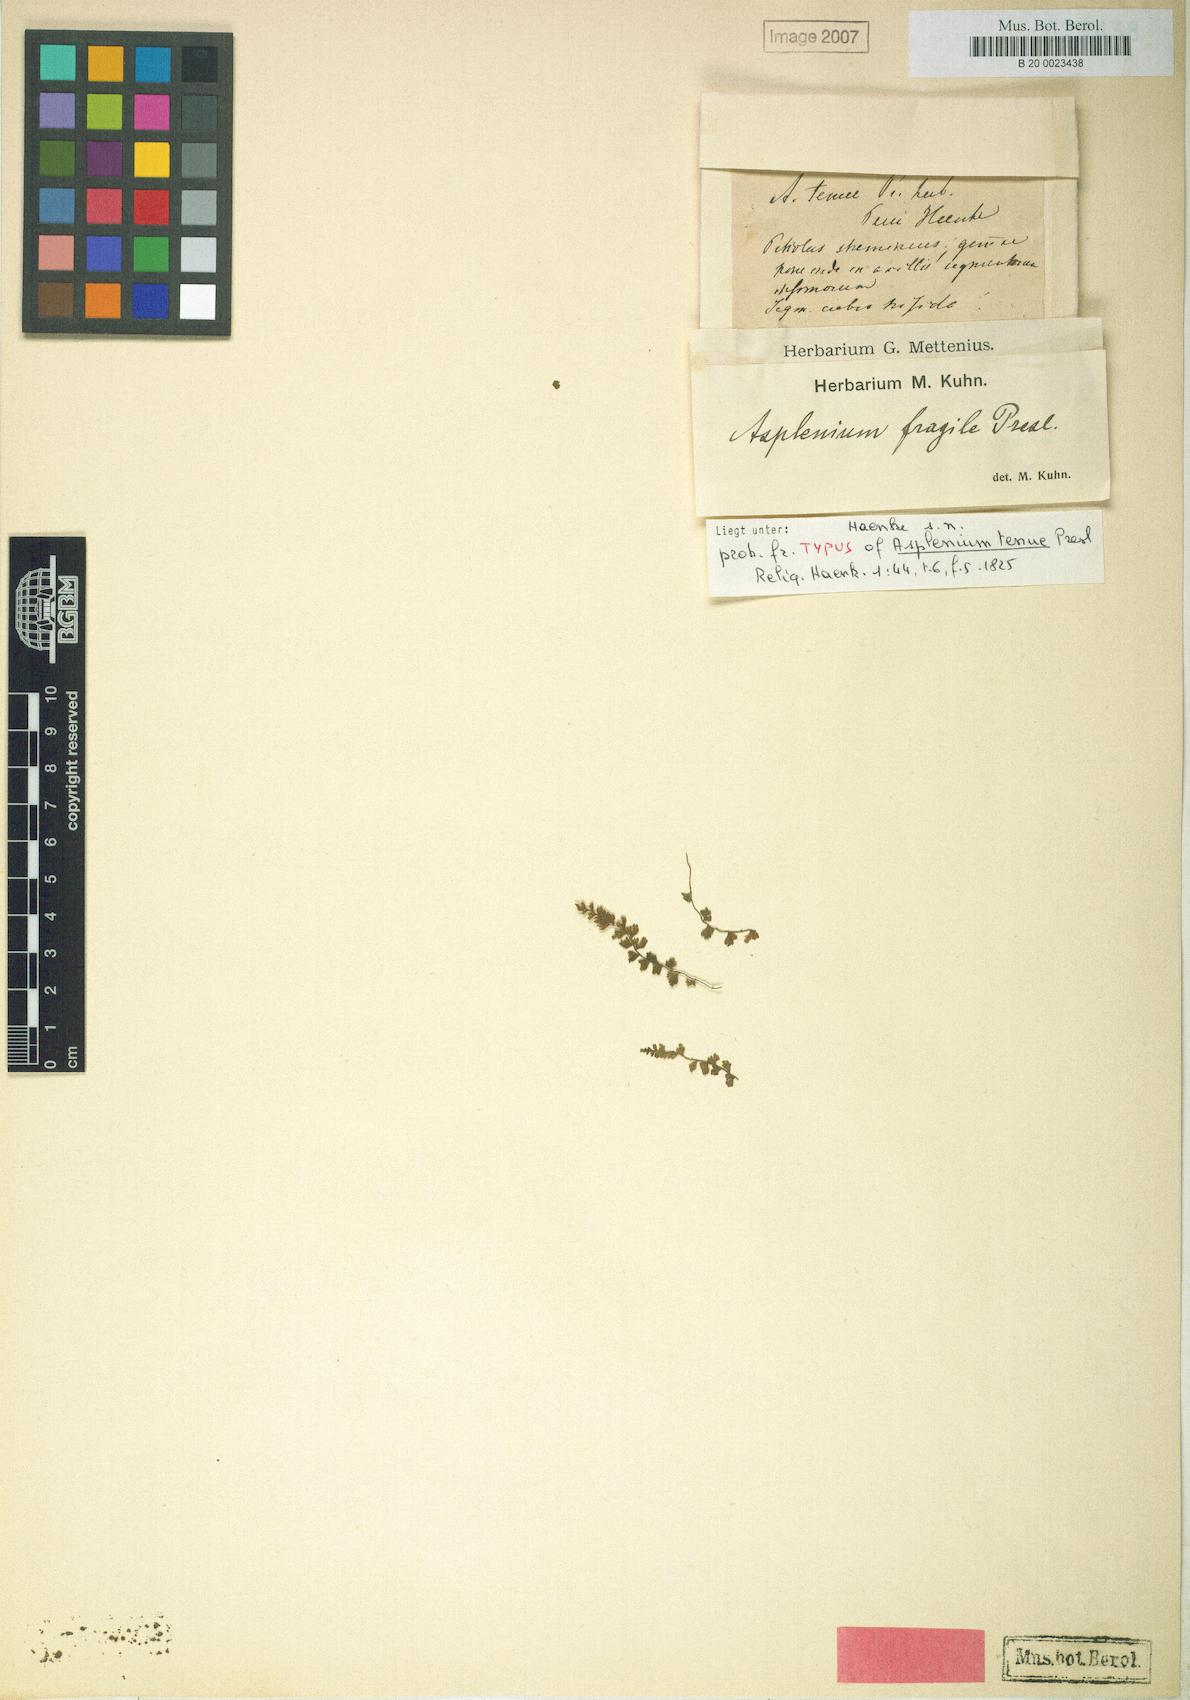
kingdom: Plantae
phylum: Tracheophyta
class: Polypodiopsida
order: Polypodiales
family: Aspleniaceae
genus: Asplenium
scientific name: Asplenium triphyllum
